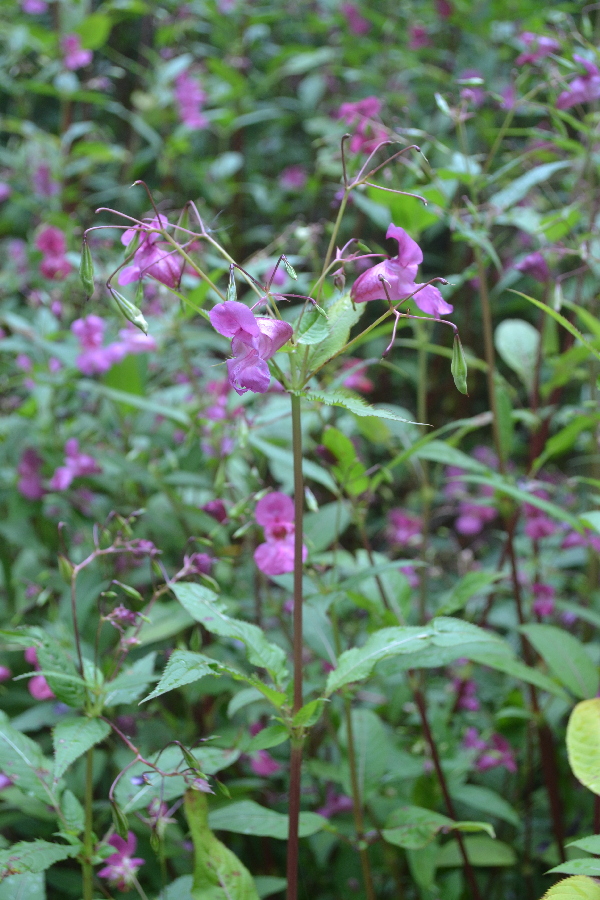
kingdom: Plantae
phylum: Tracheophyta
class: Magnoliopsida
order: Ericales
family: Balsaminaceae
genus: Impatiens
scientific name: Impatiens glandulifera
